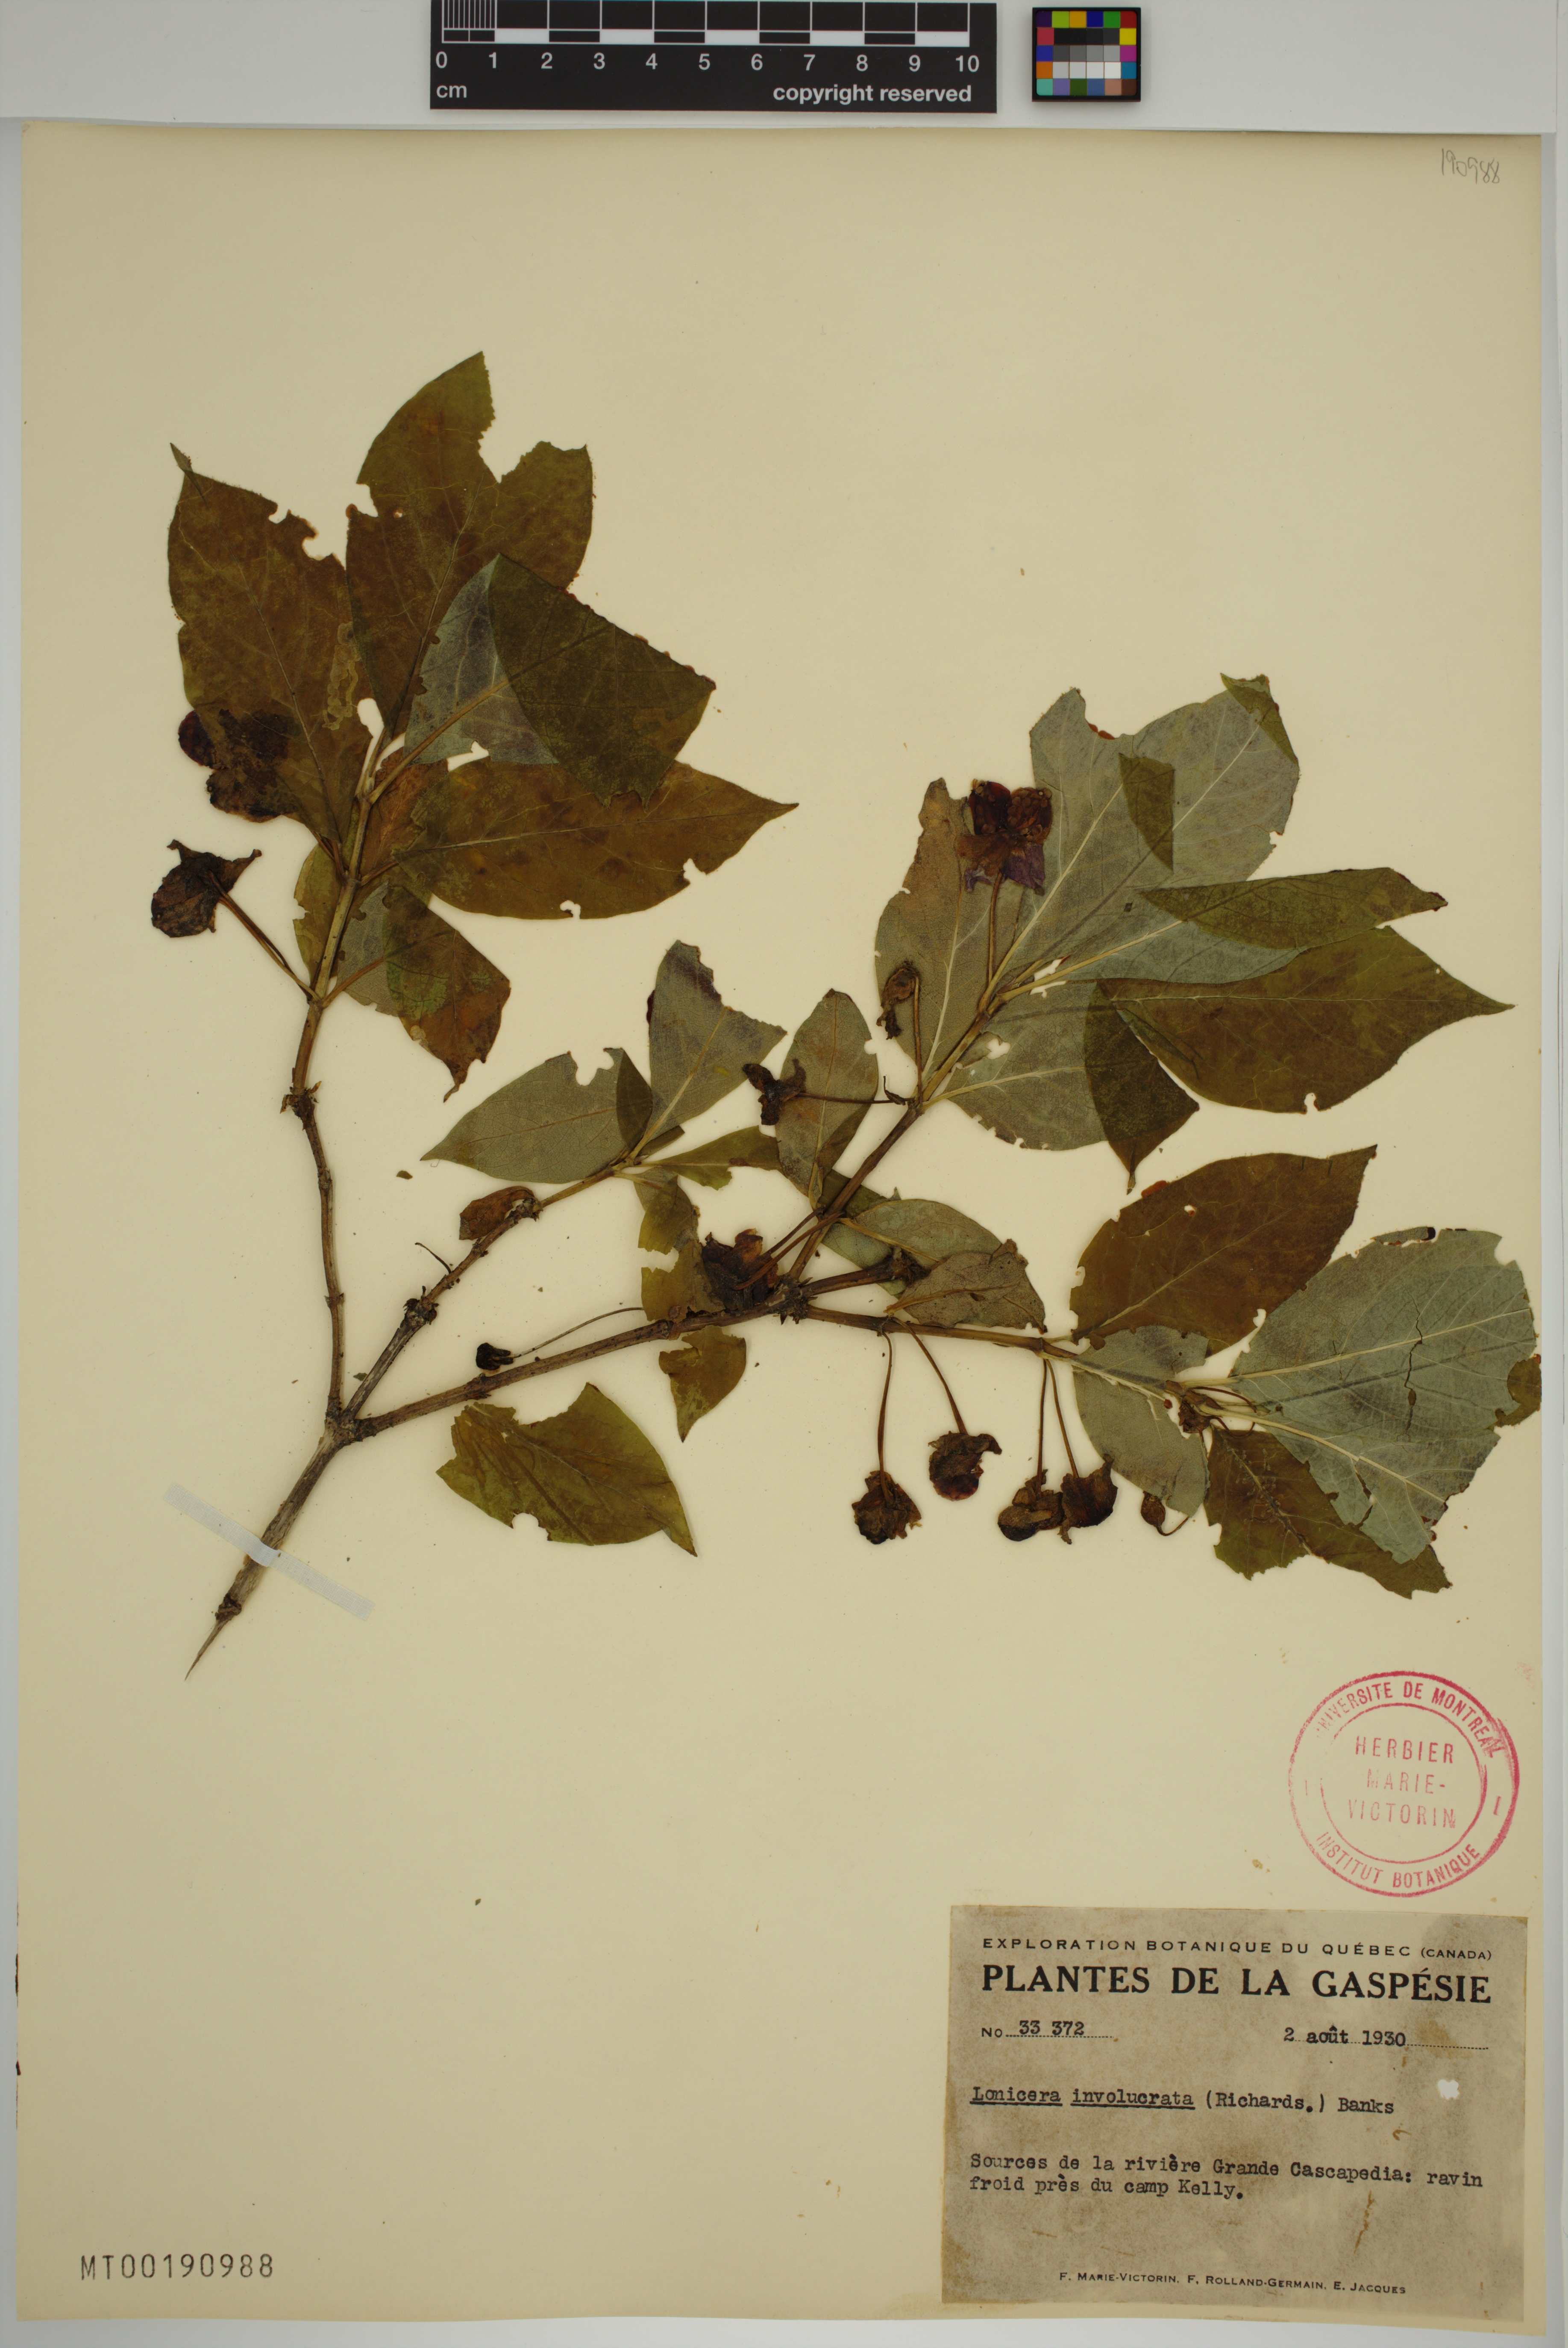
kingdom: Plantae
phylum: Tracheophyta
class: Magnoliopsida
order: Dipsacales
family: Caprifoliaceae
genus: Lonicera
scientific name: Lonicera involucrata
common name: Californian honeysuckle
